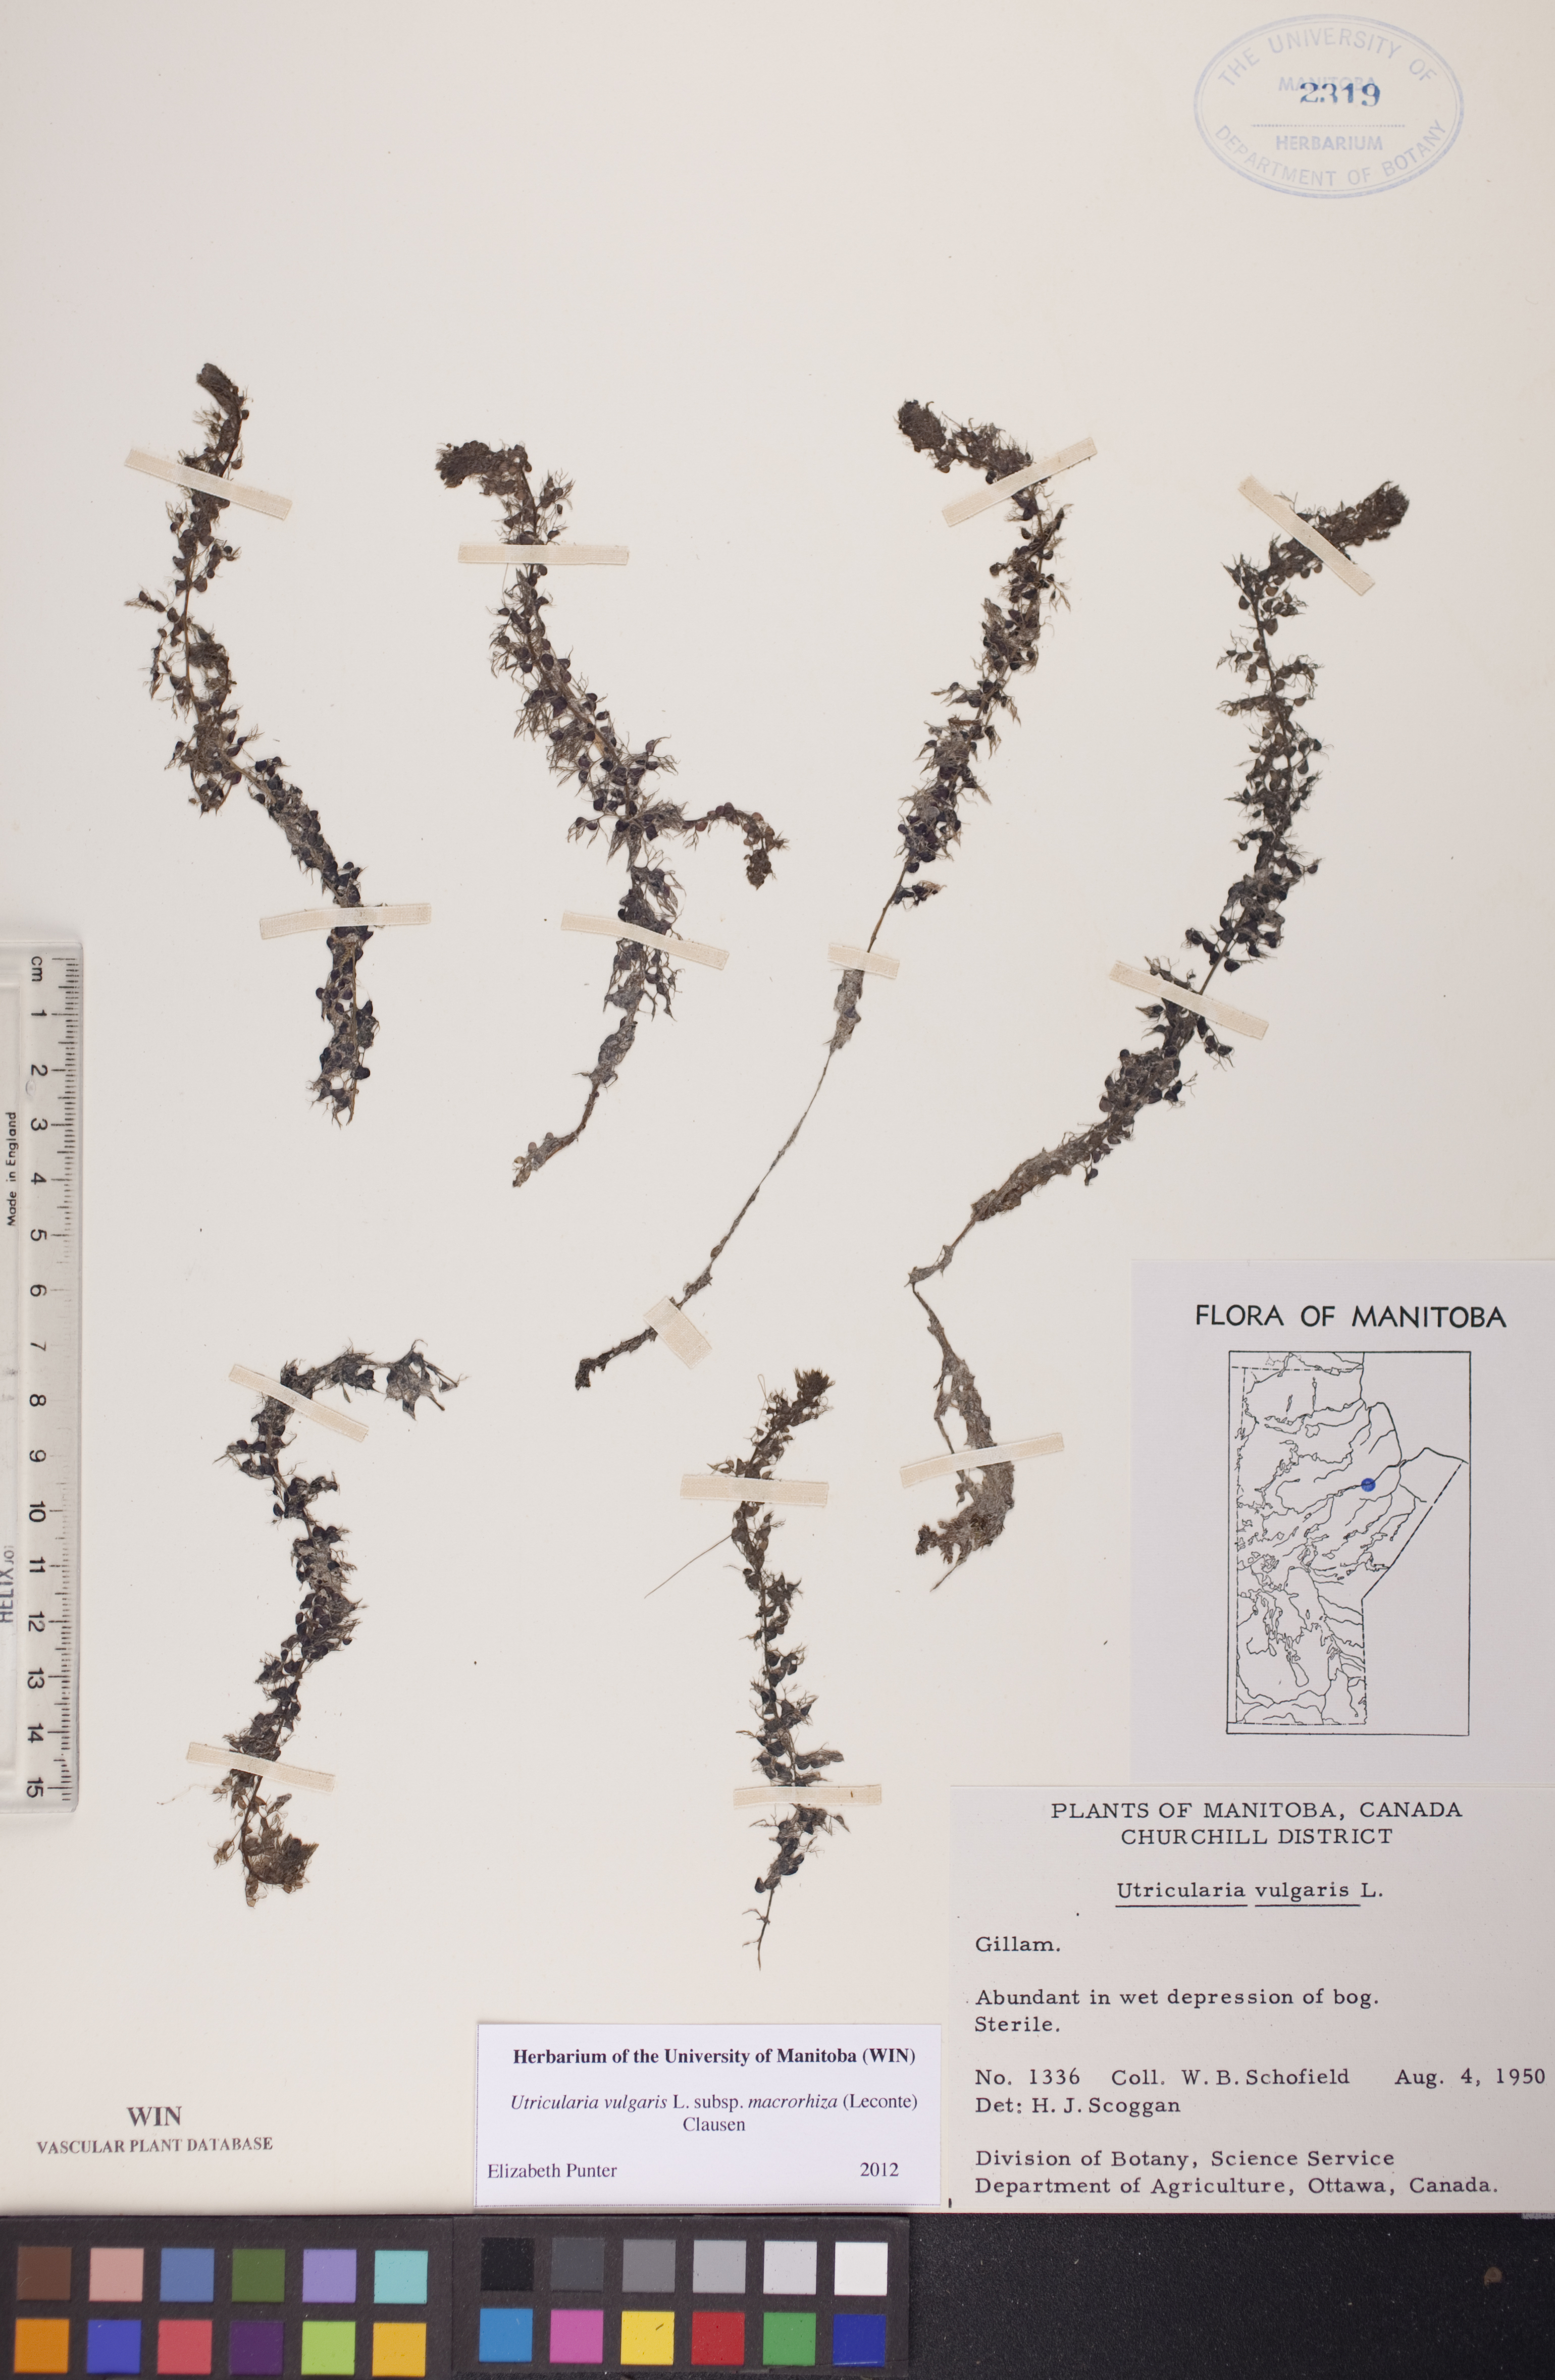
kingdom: Plantae
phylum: Tracheophyta
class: Magnoliopsida
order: Lamiales
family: Lentibulariaceae
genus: Utricularia
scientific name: Utricularia macrorhiza
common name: Common bladderwort
